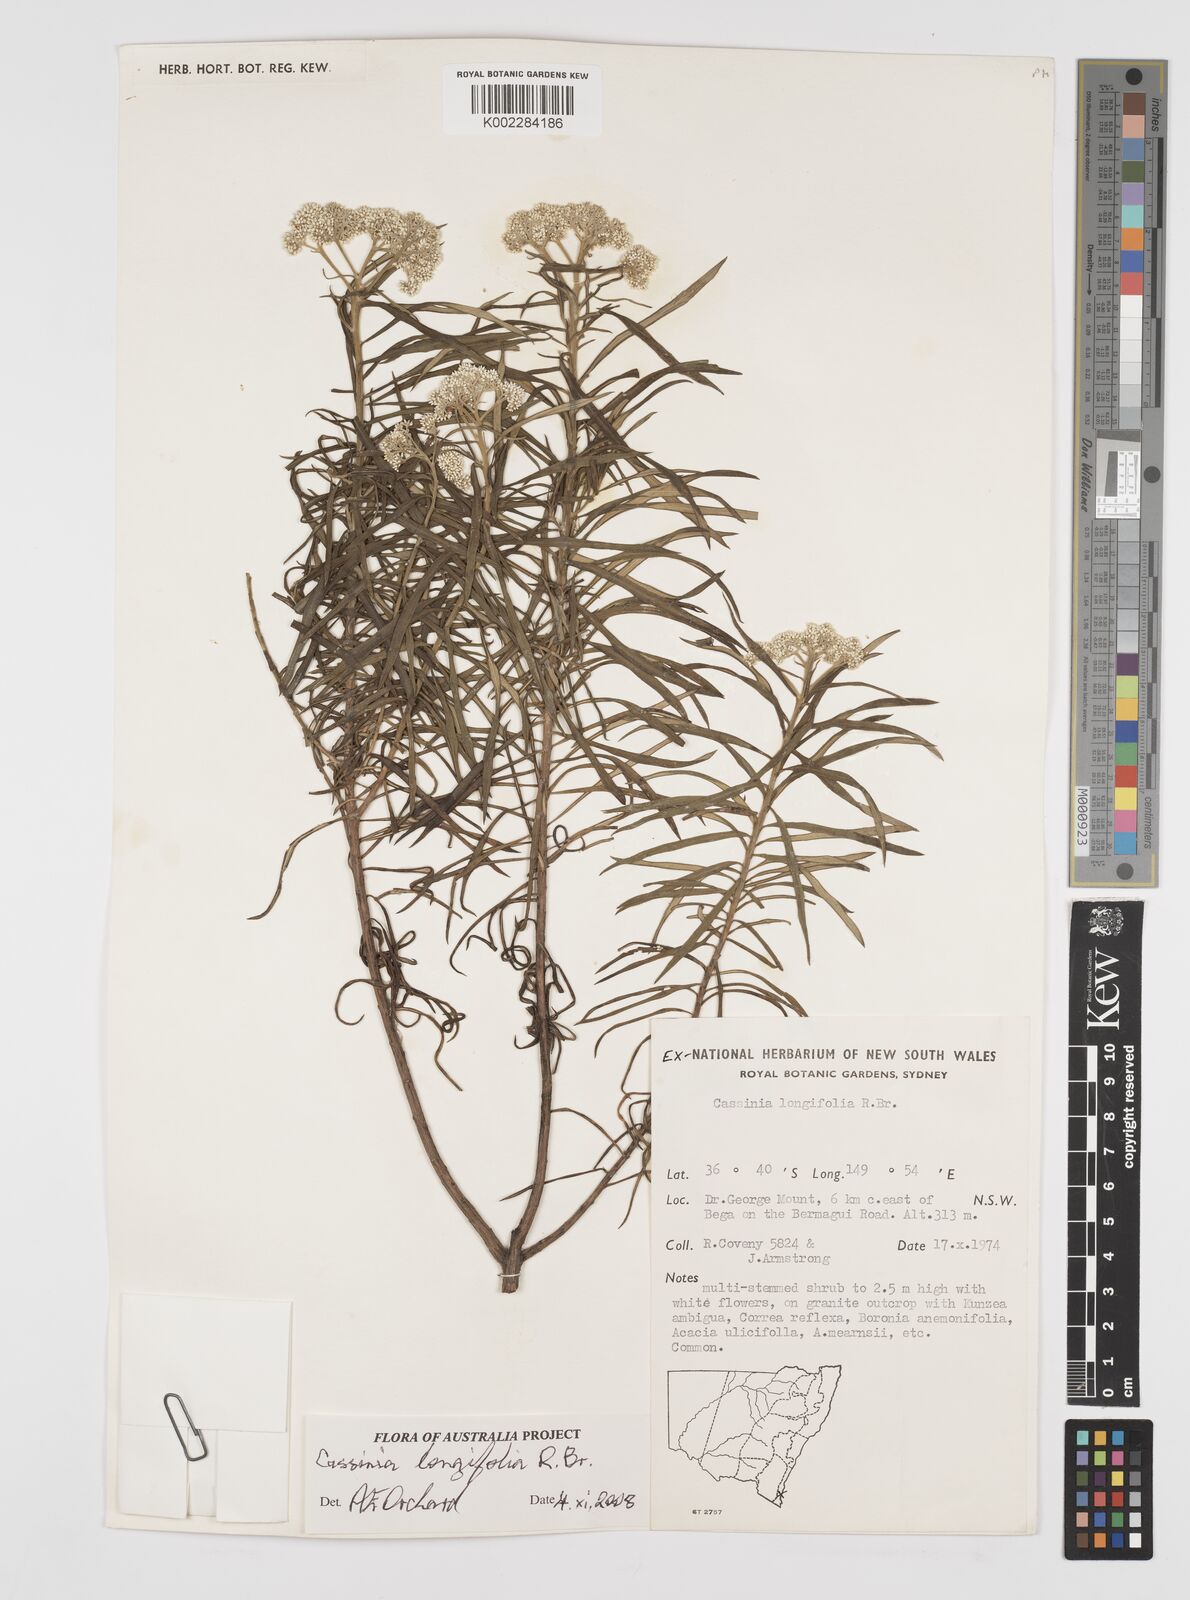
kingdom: Plantae
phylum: Tracheophyta
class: Magnoliopsida
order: Asterales
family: Asteraceae
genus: Cassinia
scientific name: Cassinia longifolia
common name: Longleaf-dogwood
